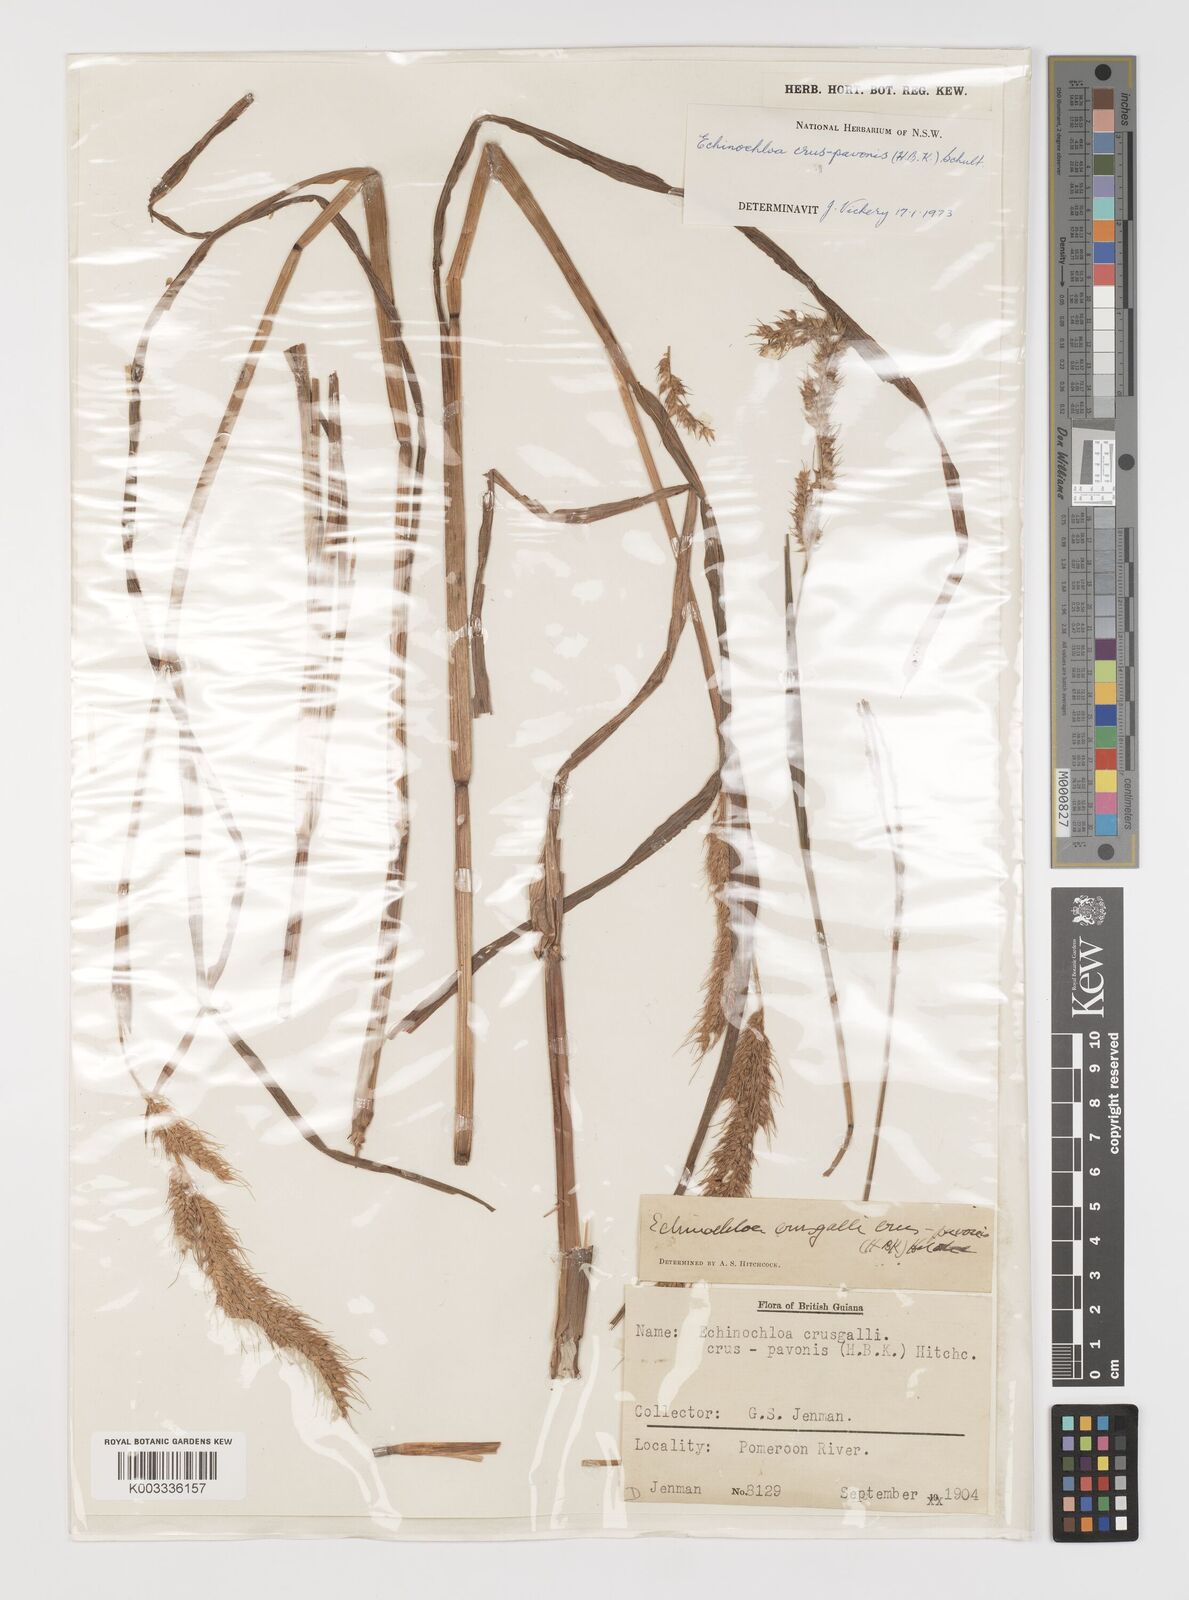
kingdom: Plantae
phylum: Tracheophyta
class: Liliopsida
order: Poales
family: Poaceae
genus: Echinochloa
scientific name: Echinochloa crus-pavonis
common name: Gulf cockspur grass
